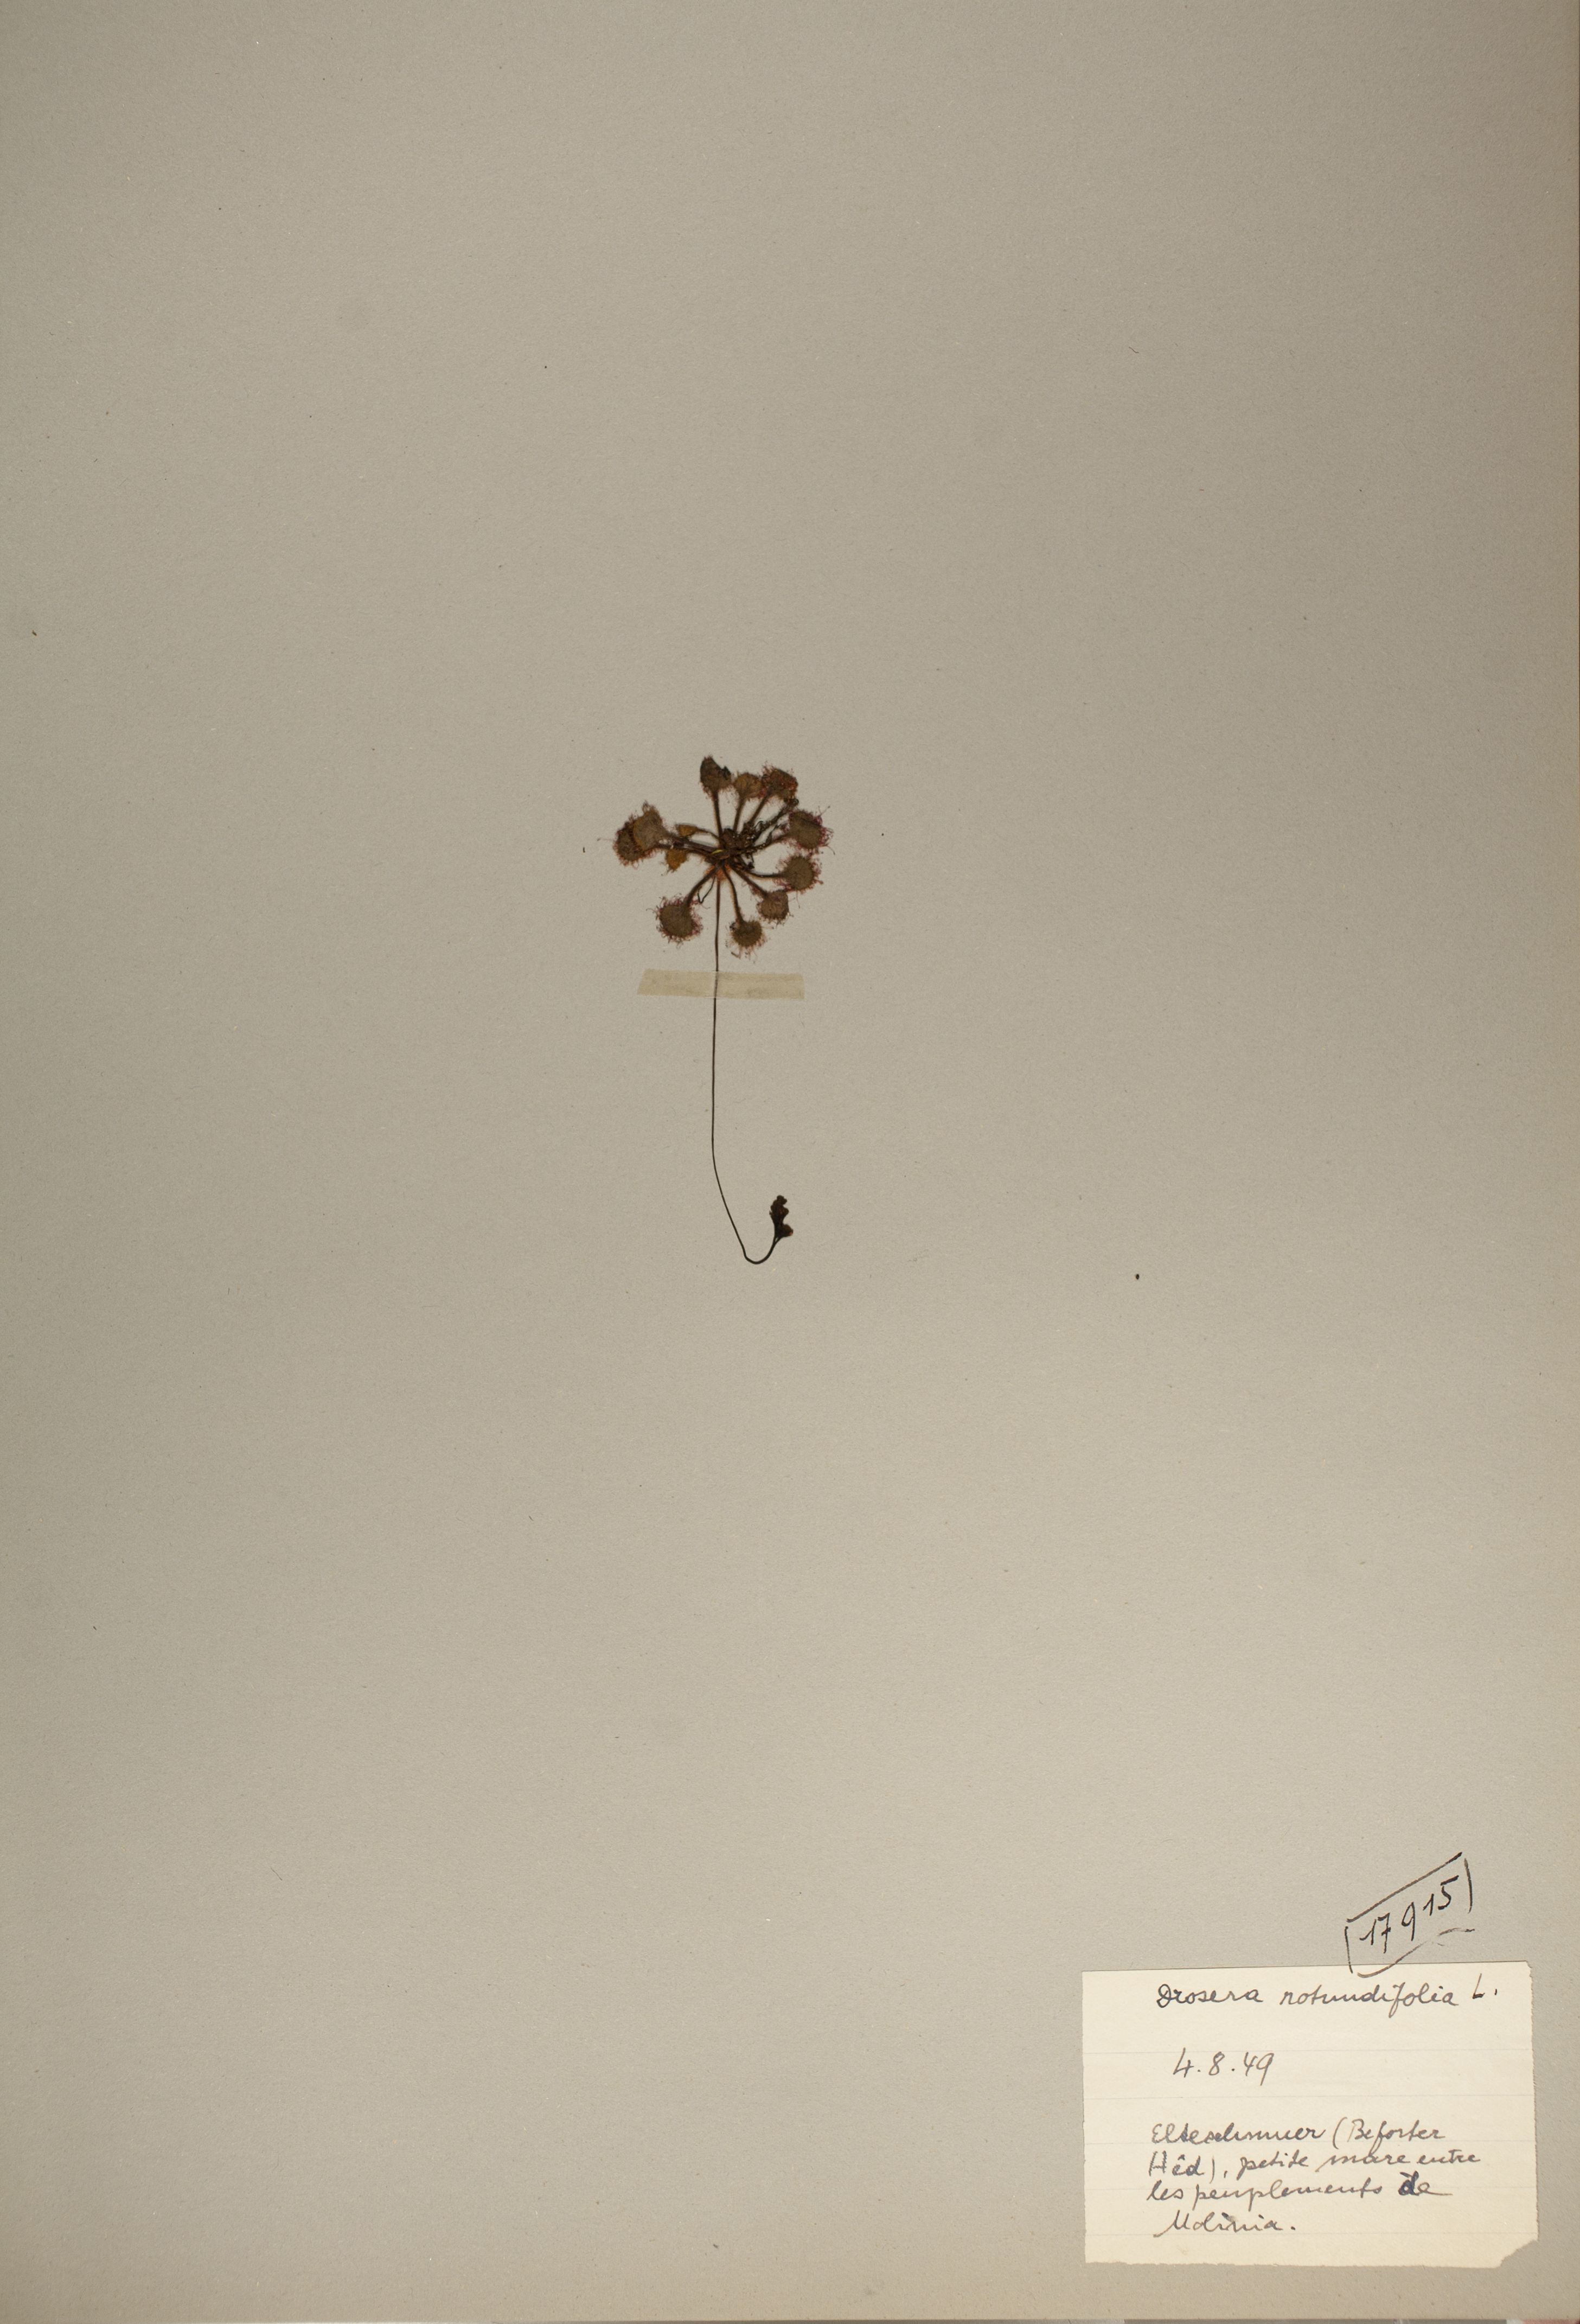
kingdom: Plantae
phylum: Tracheophyta
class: Magnoliopsida
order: Caryophyllales
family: Droseraceae
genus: Drosera
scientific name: Drosera rotundifolia
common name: Round-leaved sundew
